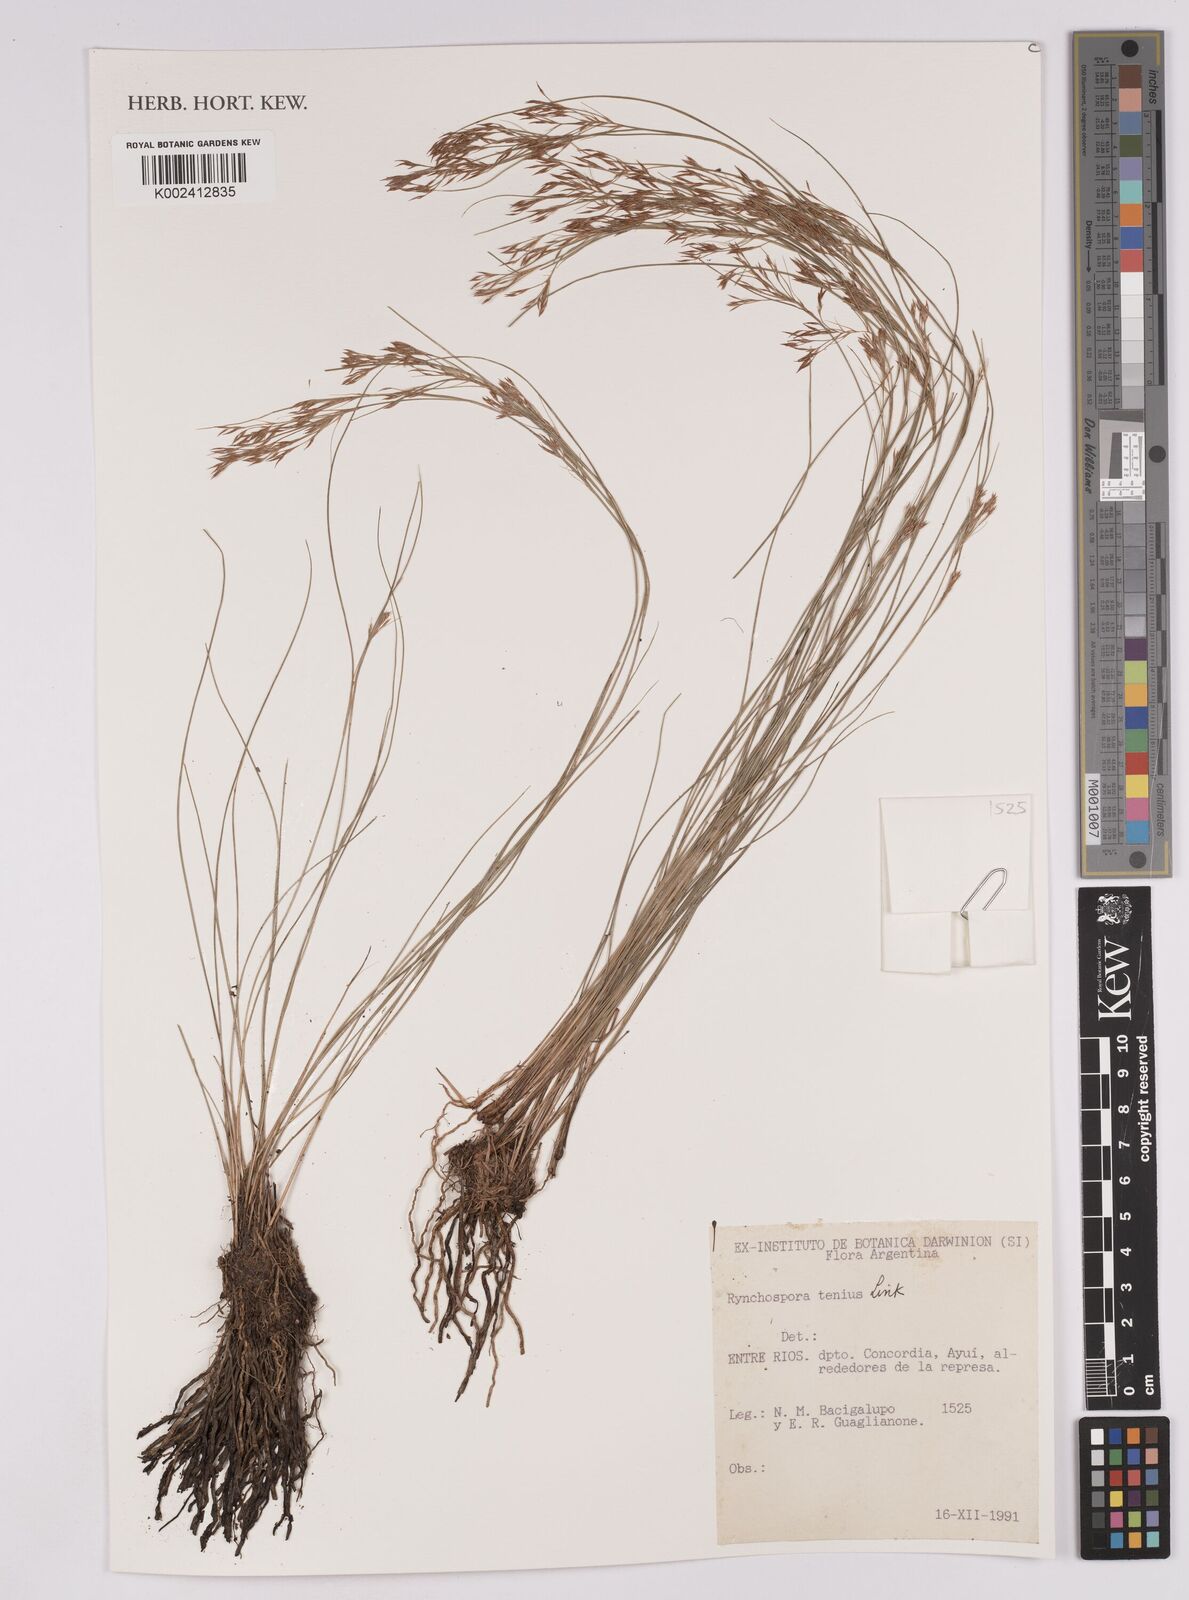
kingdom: Plantae
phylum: Tracheophyta
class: Liliopsida
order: Poales
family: Cyperaceae
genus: Rhynchospora
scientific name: Rhynchospora tenuis
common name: Quill beaksedge
